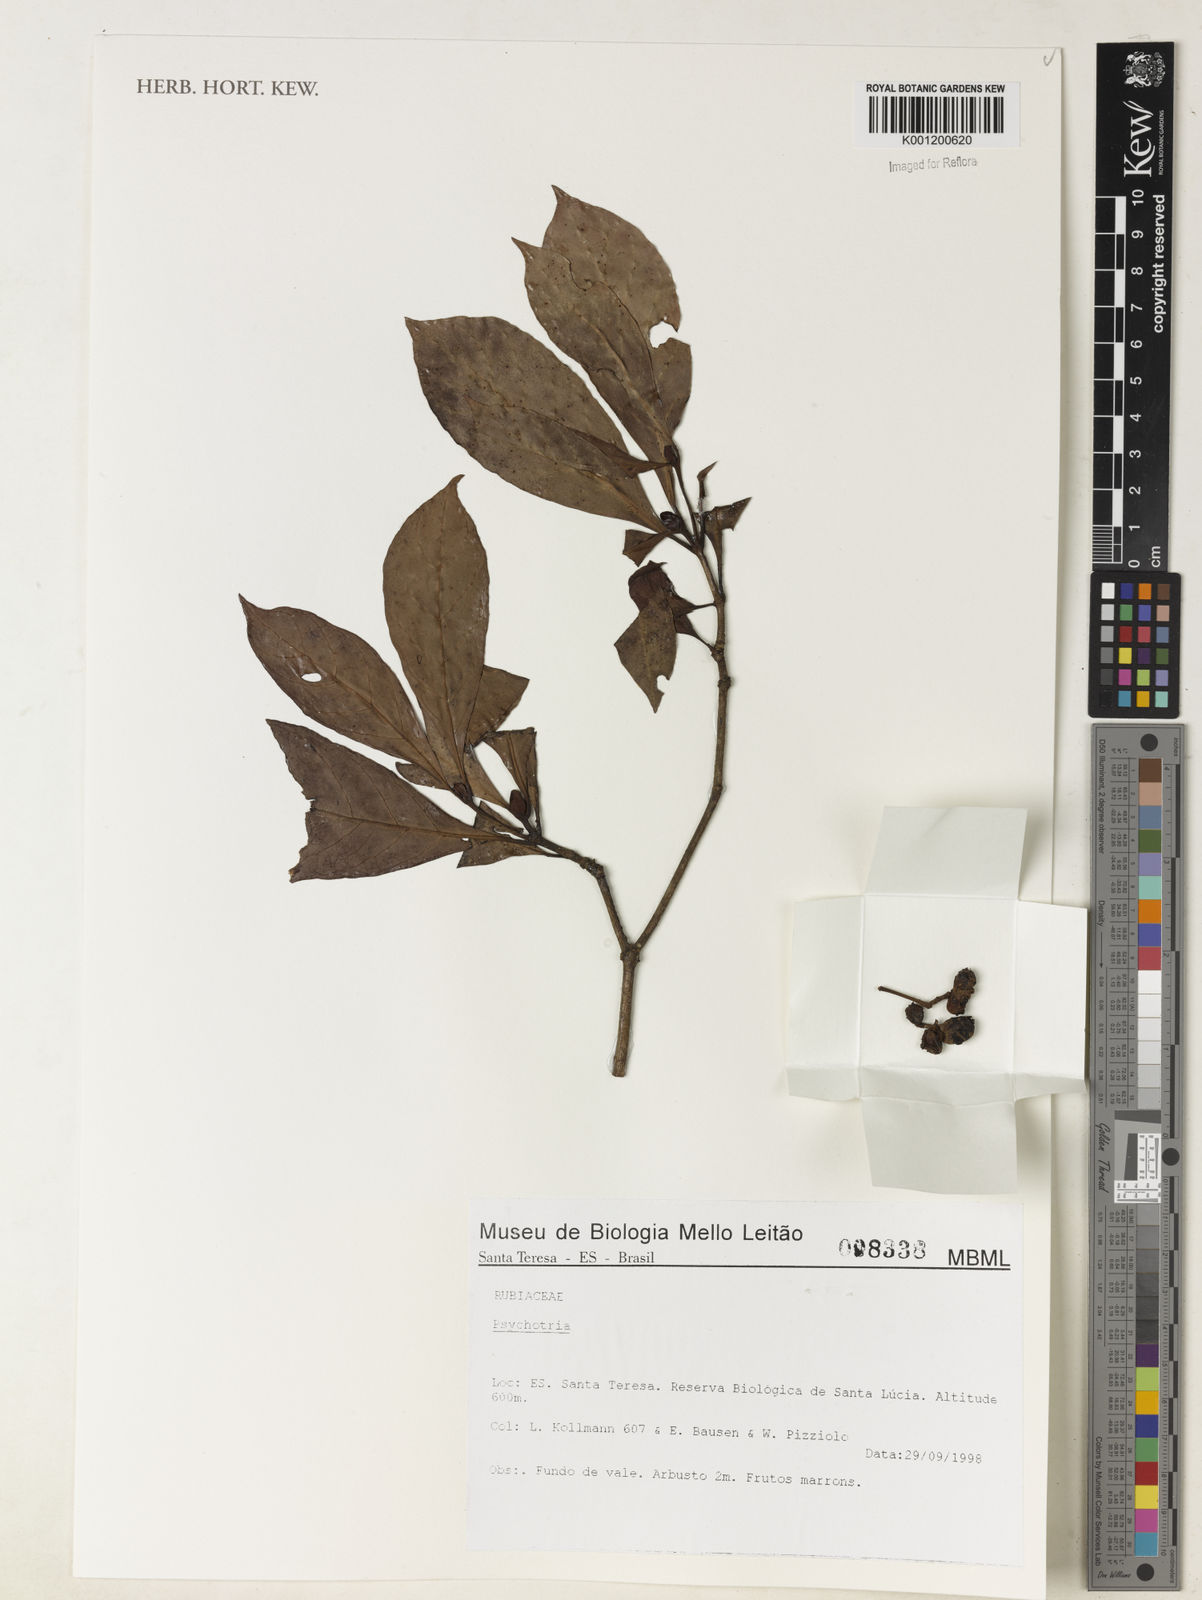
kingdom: Plantae
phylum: Tracheophyta
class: Magnoliopsida
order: Gentianales
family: Rubiaceae
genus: Psychotria
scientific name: Psychotria
